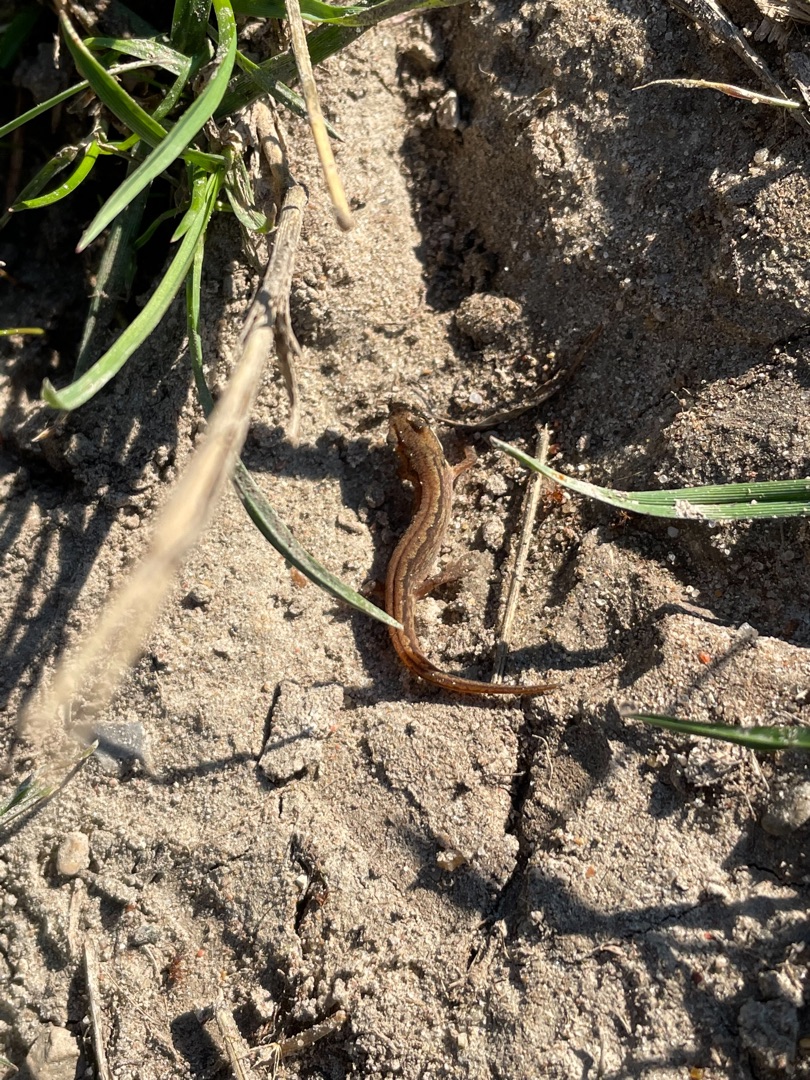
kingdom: Animalia
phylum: Chordata
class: Amphibia
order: Caudata
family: Salamandridae
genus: Lissotriton
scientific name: Lissotriton vulgaris
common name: Lille vandsalamander
